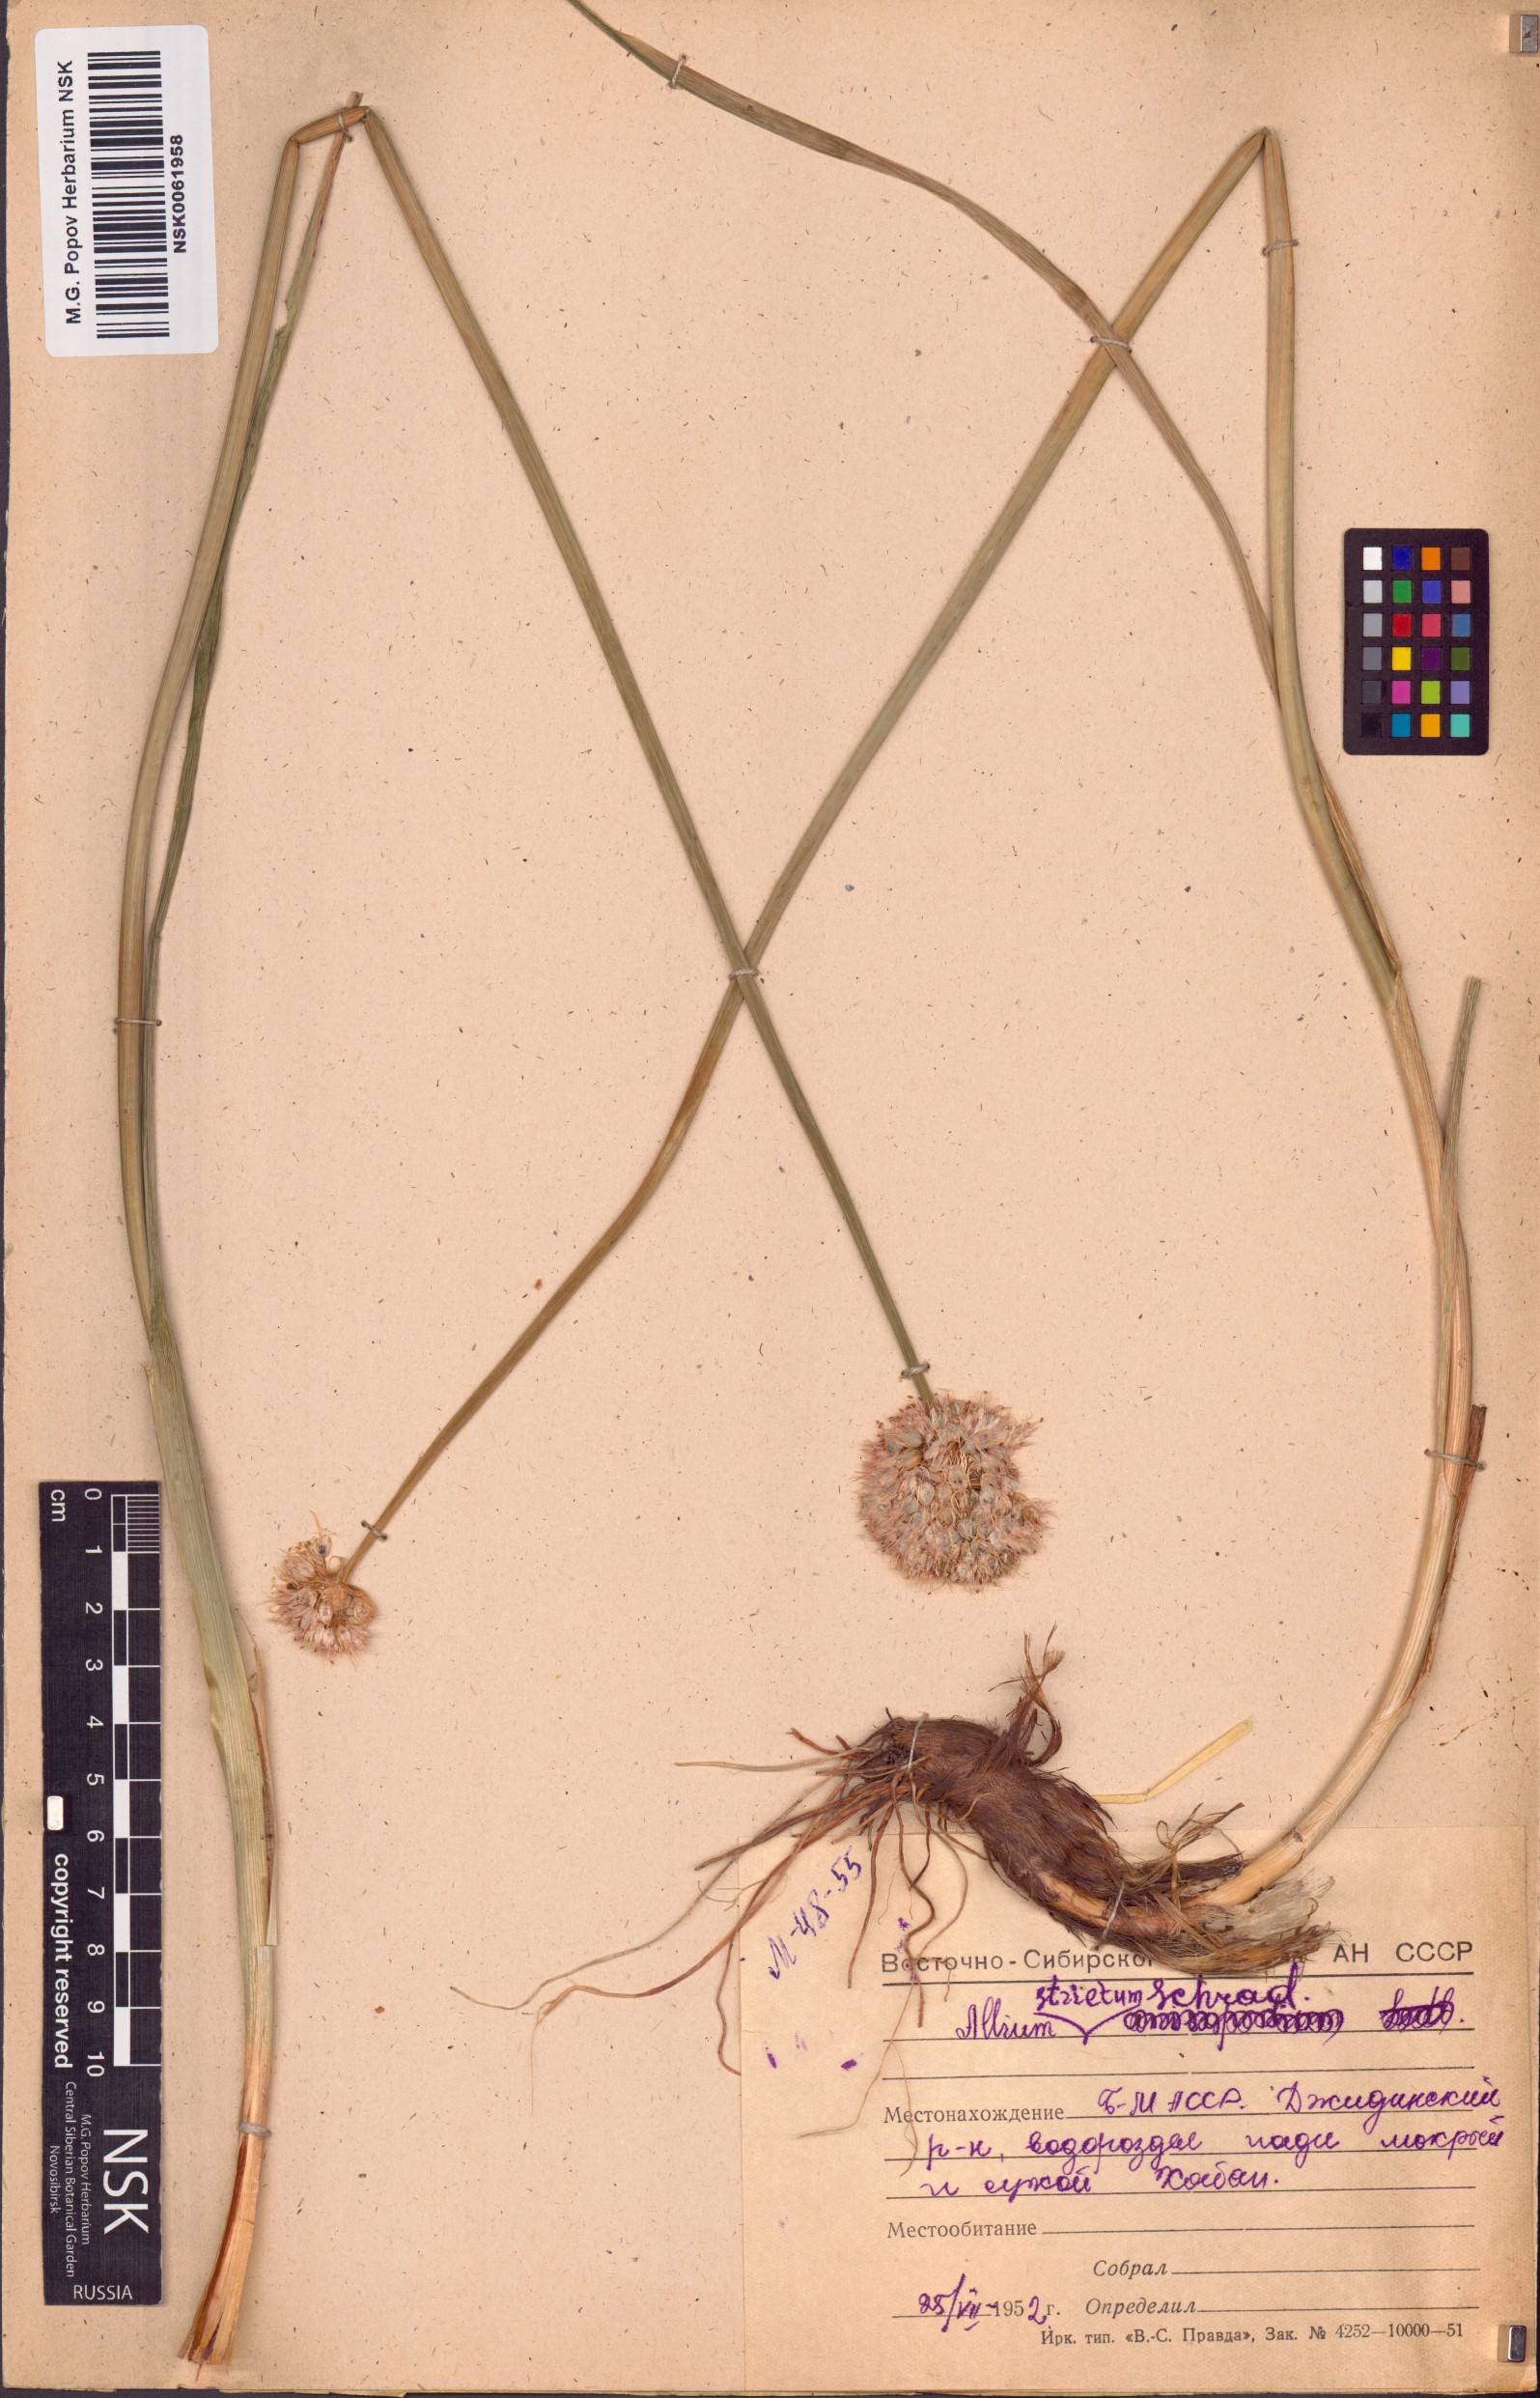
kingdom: Plantae
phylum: Tracheophyta
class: Liliopsida
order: Asparagales
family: Amaryllidaceae
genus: Allium
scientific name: Allium strictum
